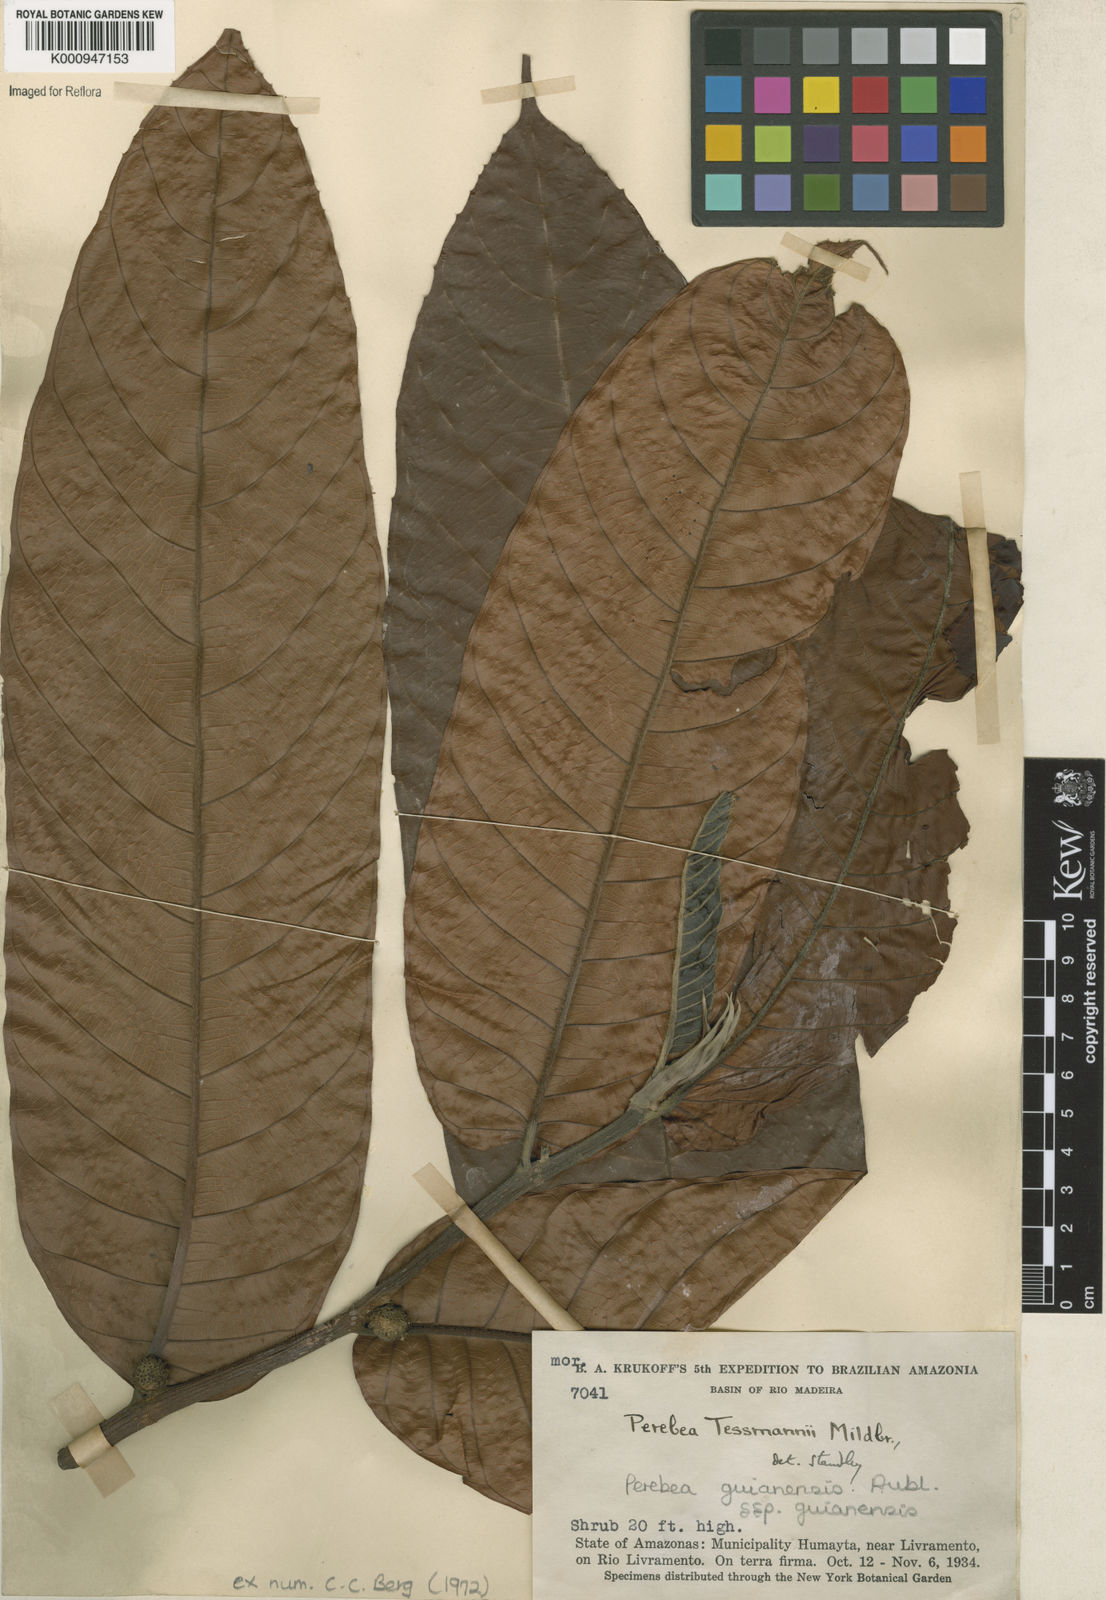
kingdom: Plantae
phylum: Tracheophyta
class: Magnoliopsida
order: Rosales
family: Moraceae
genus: Perebea
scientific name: Perebea guianensis
